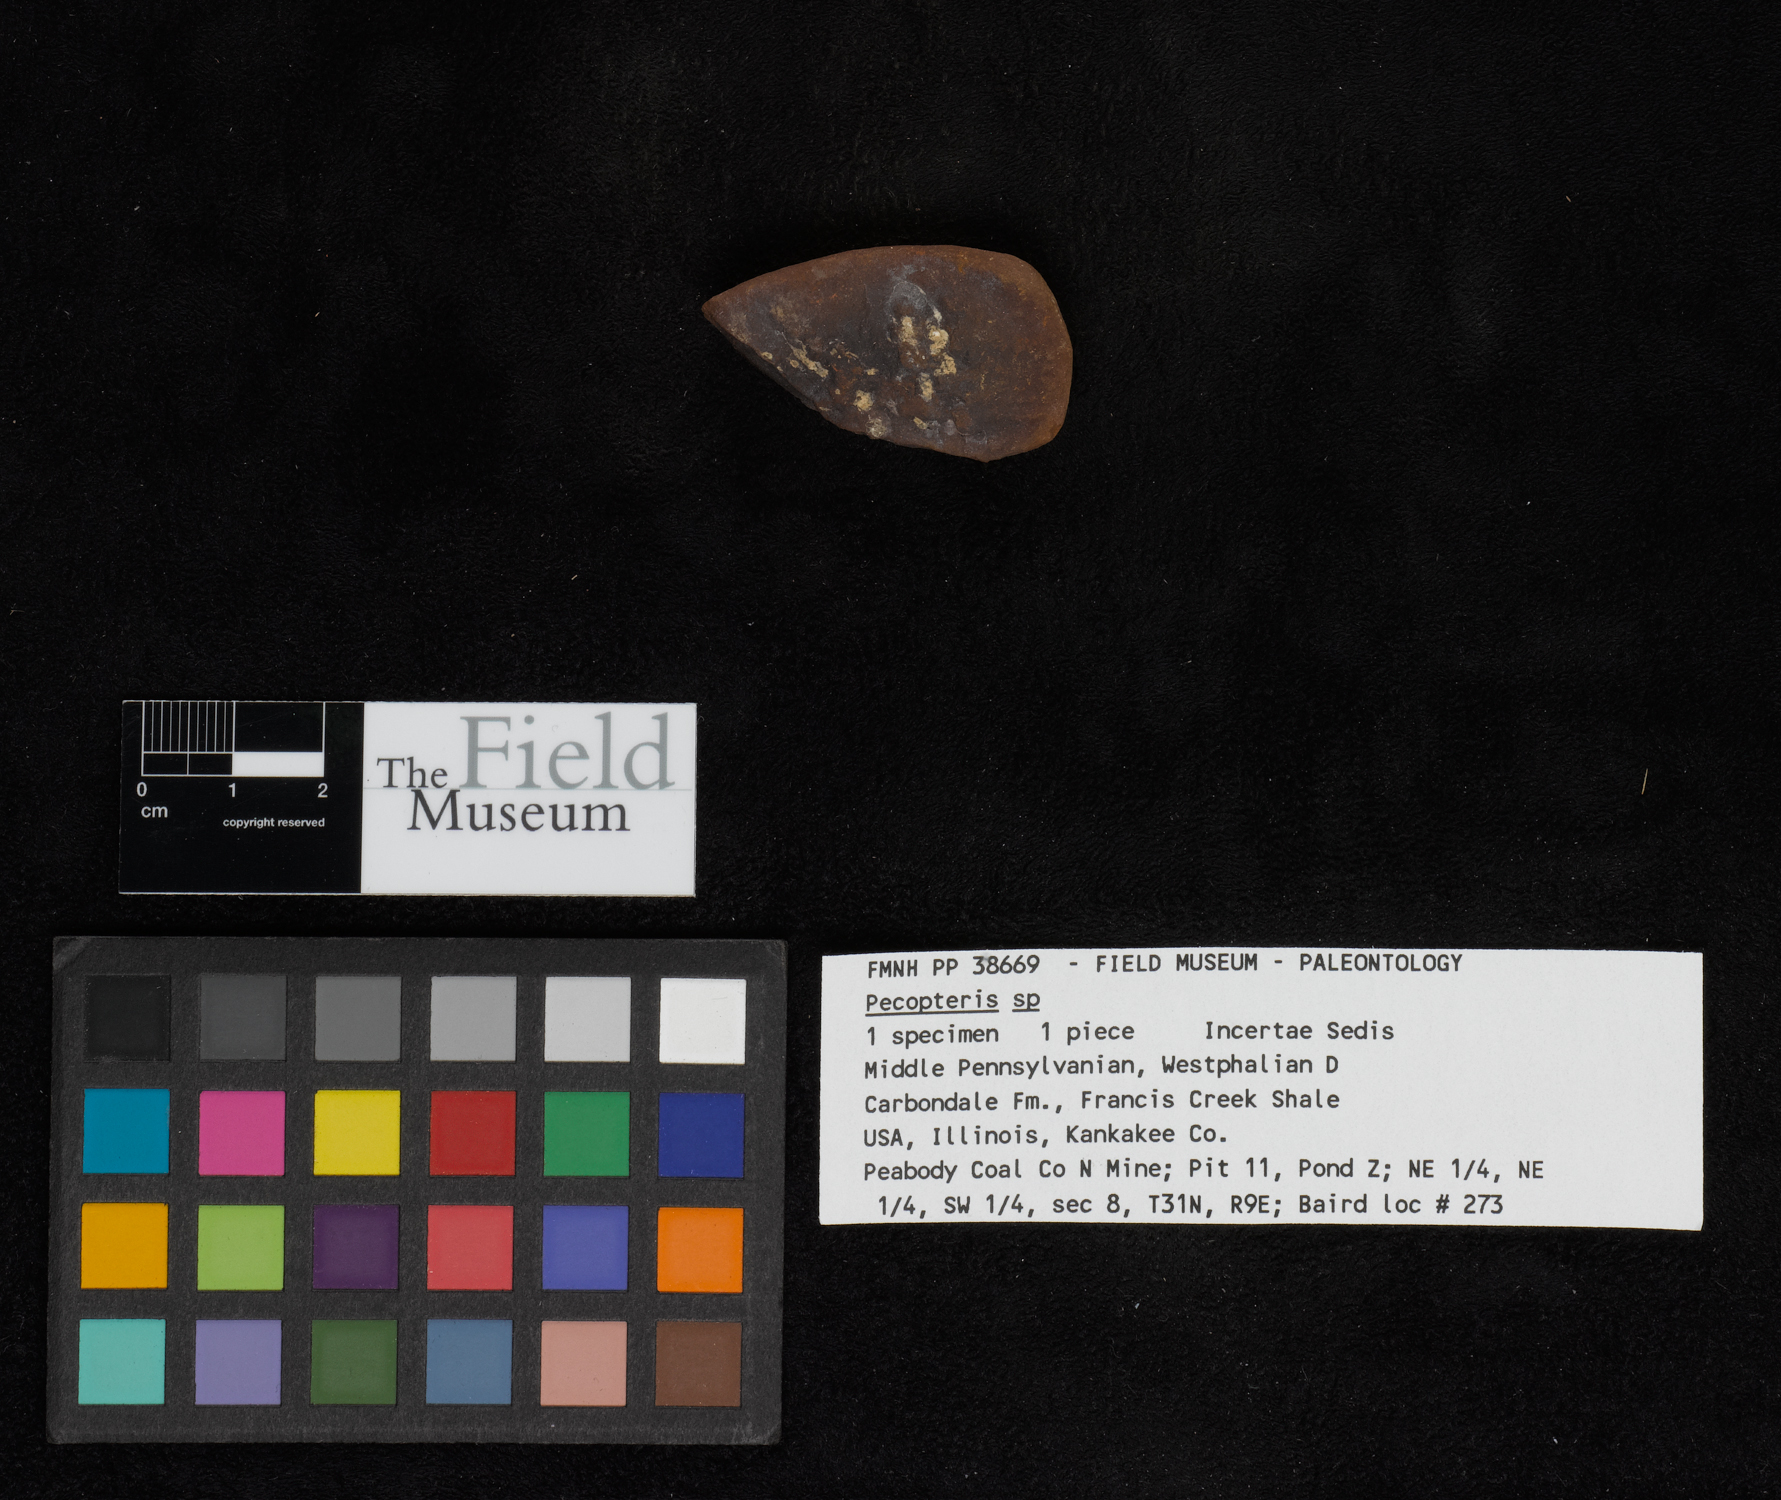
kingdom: Plantae
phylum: Tracheophyta
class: Polypodiopsida
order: Marattiales
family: Asterothecaceae
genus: Pecopteris
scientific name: Pecopteris
